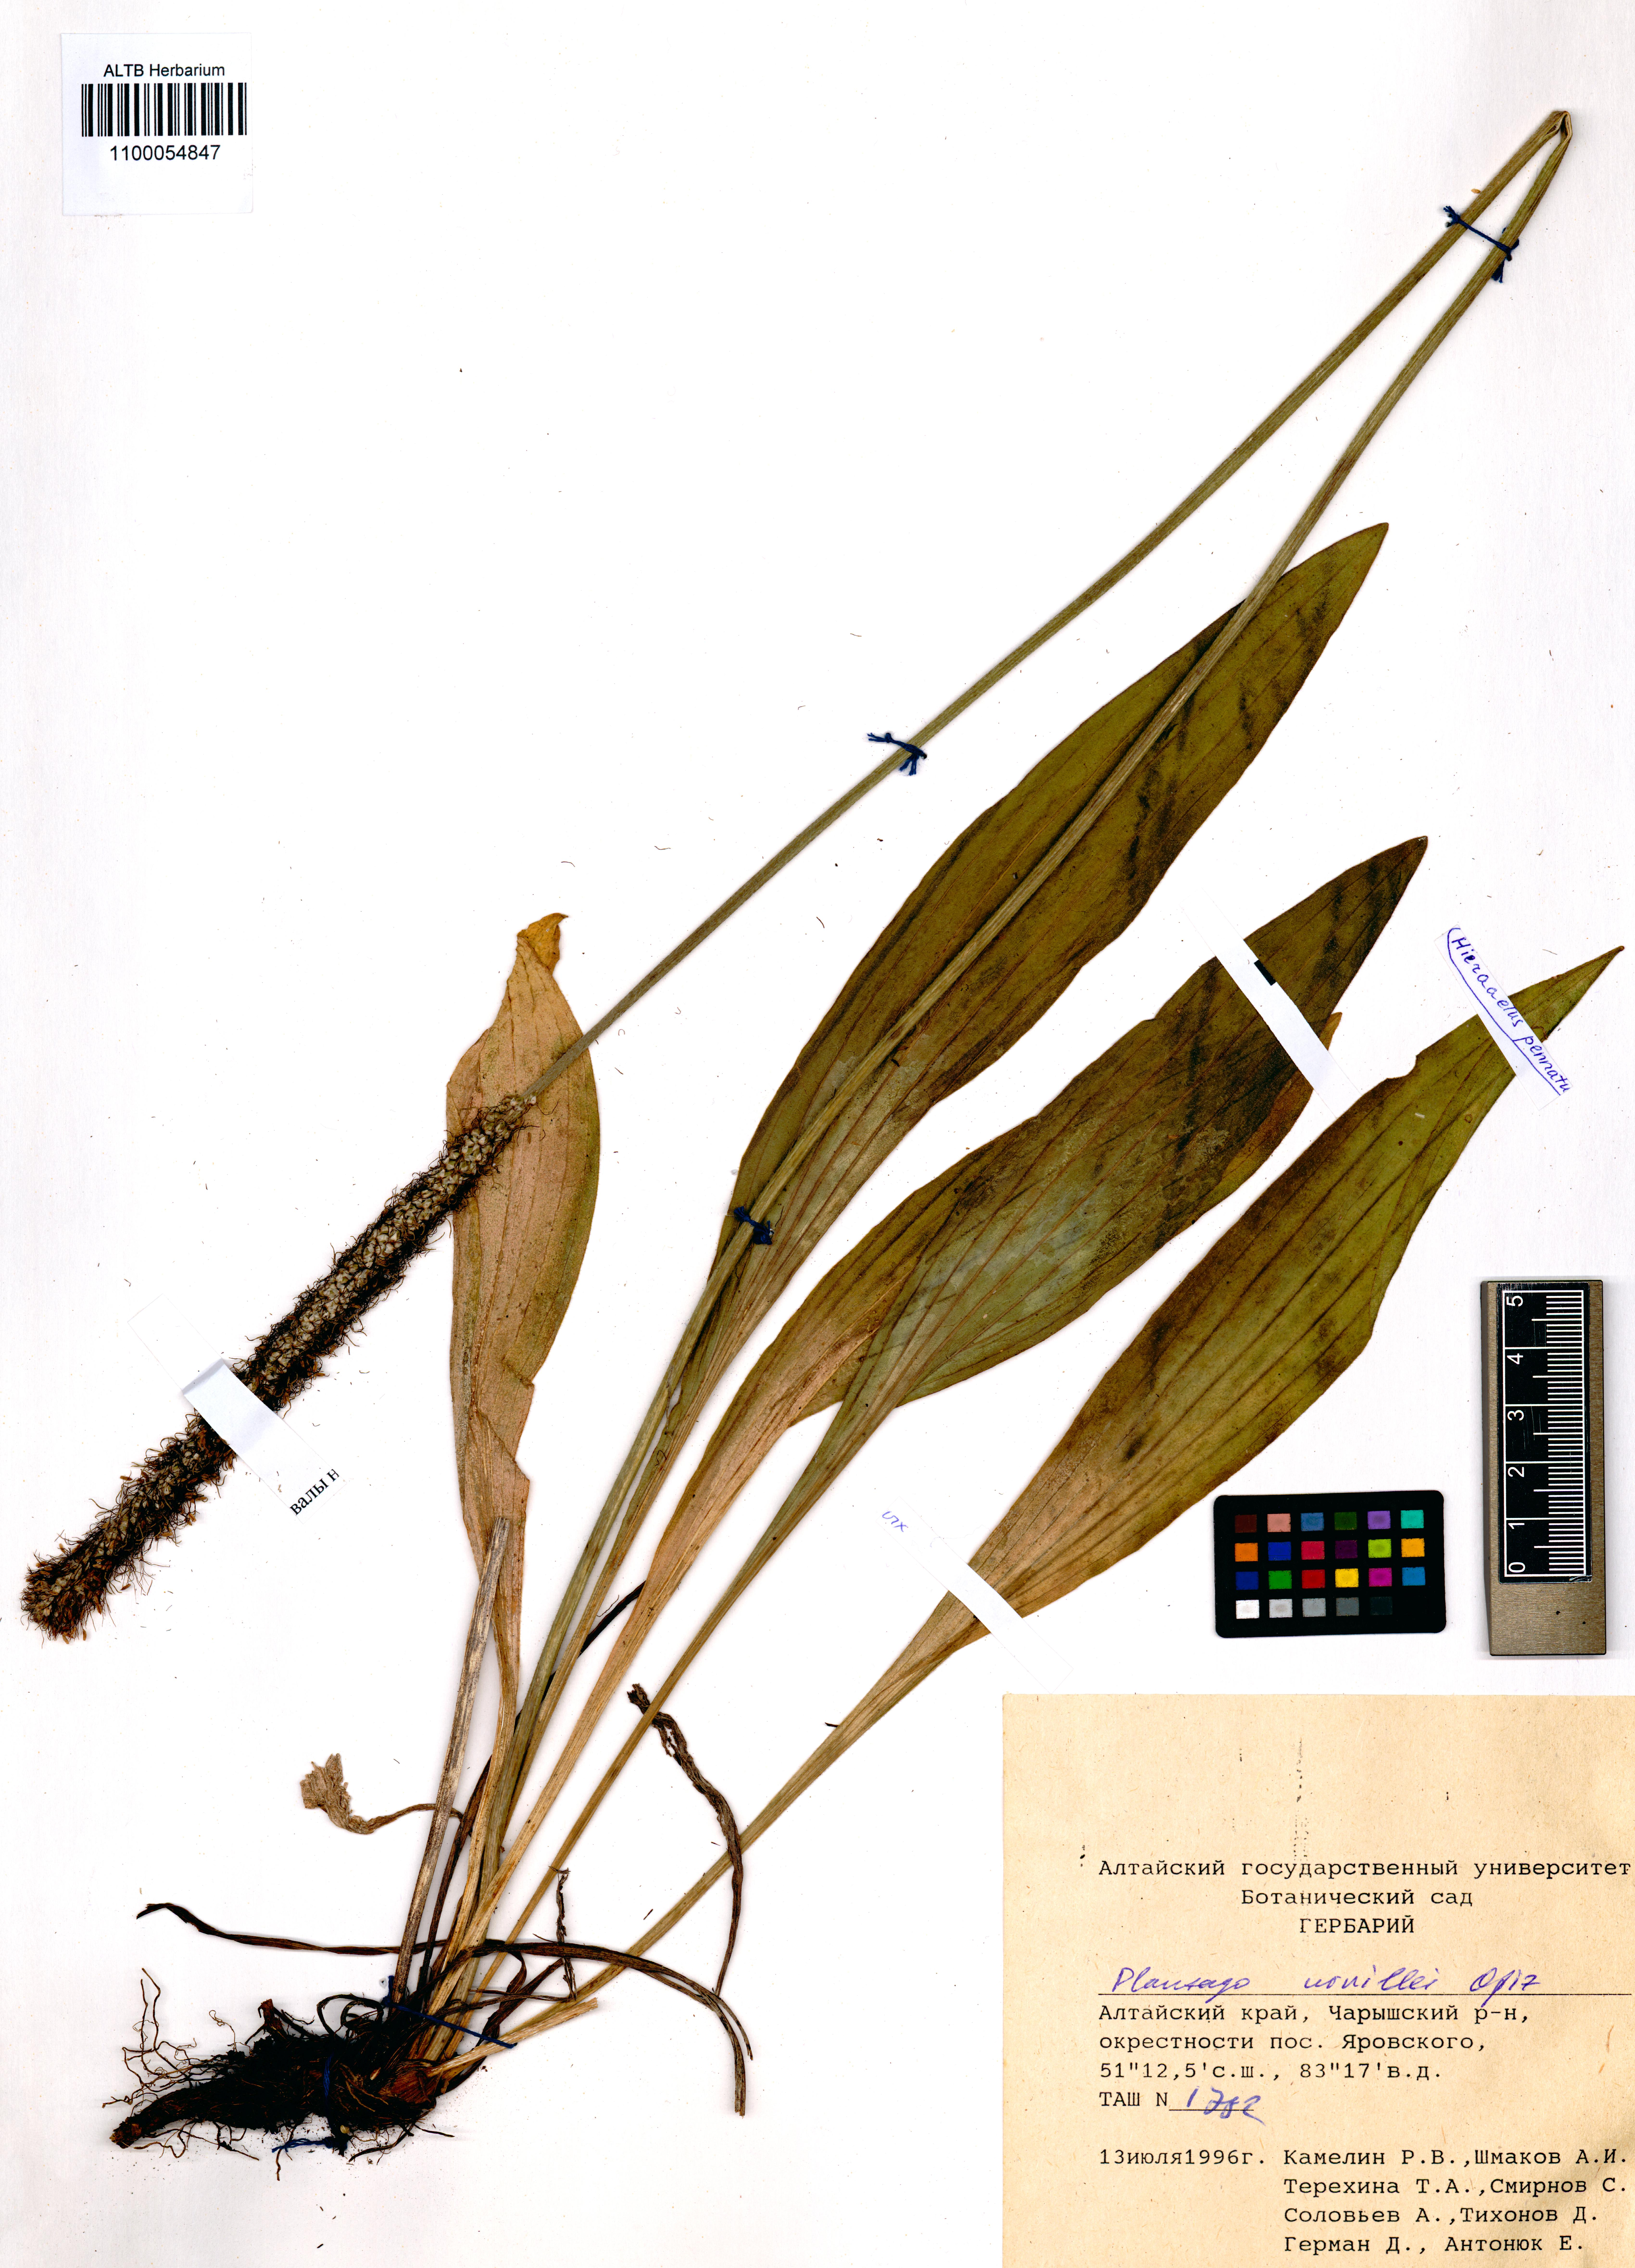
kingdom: Plantae
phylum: Tracheophyta
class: Magnoliopsida
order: Lamiales
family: Plantaginaceae
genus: Plantago
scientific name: Plantago urvillei
